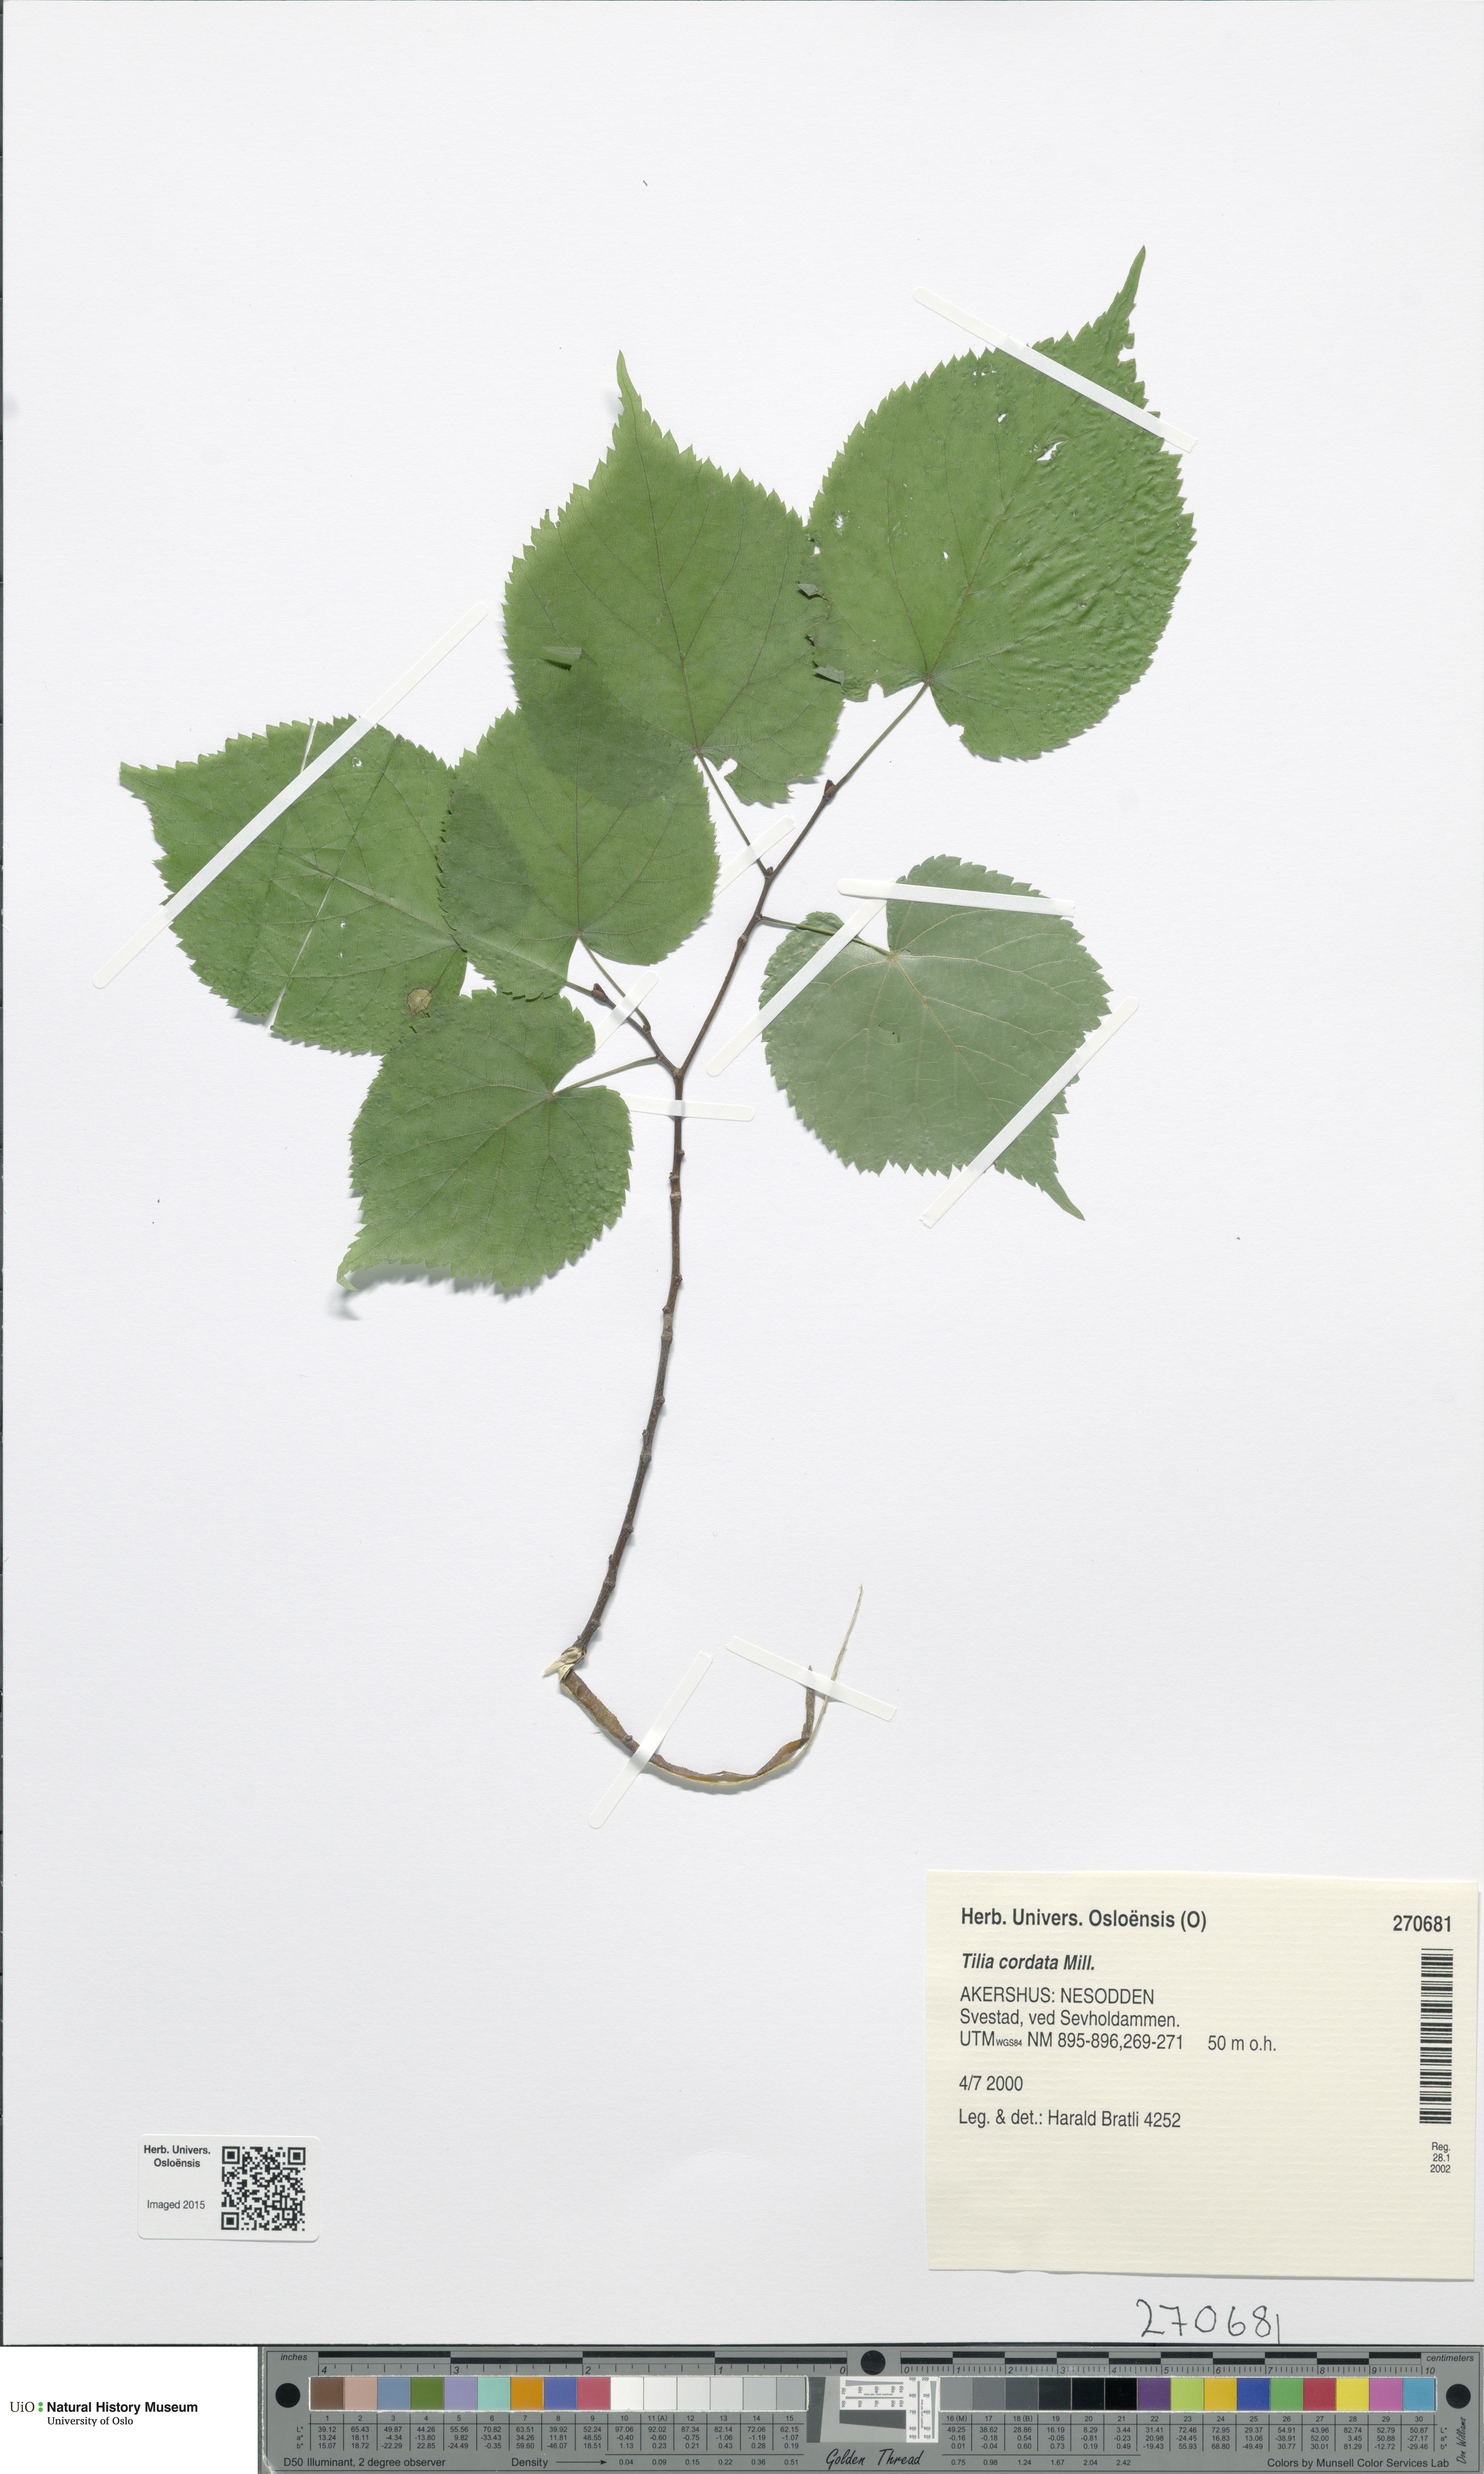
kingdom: Plantae
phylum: Tracheophyta
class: Magnoliopsida
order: Malvales
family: Malvaceae
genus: Tilia
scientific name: Tilia cordata
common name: Small-leaved lime
